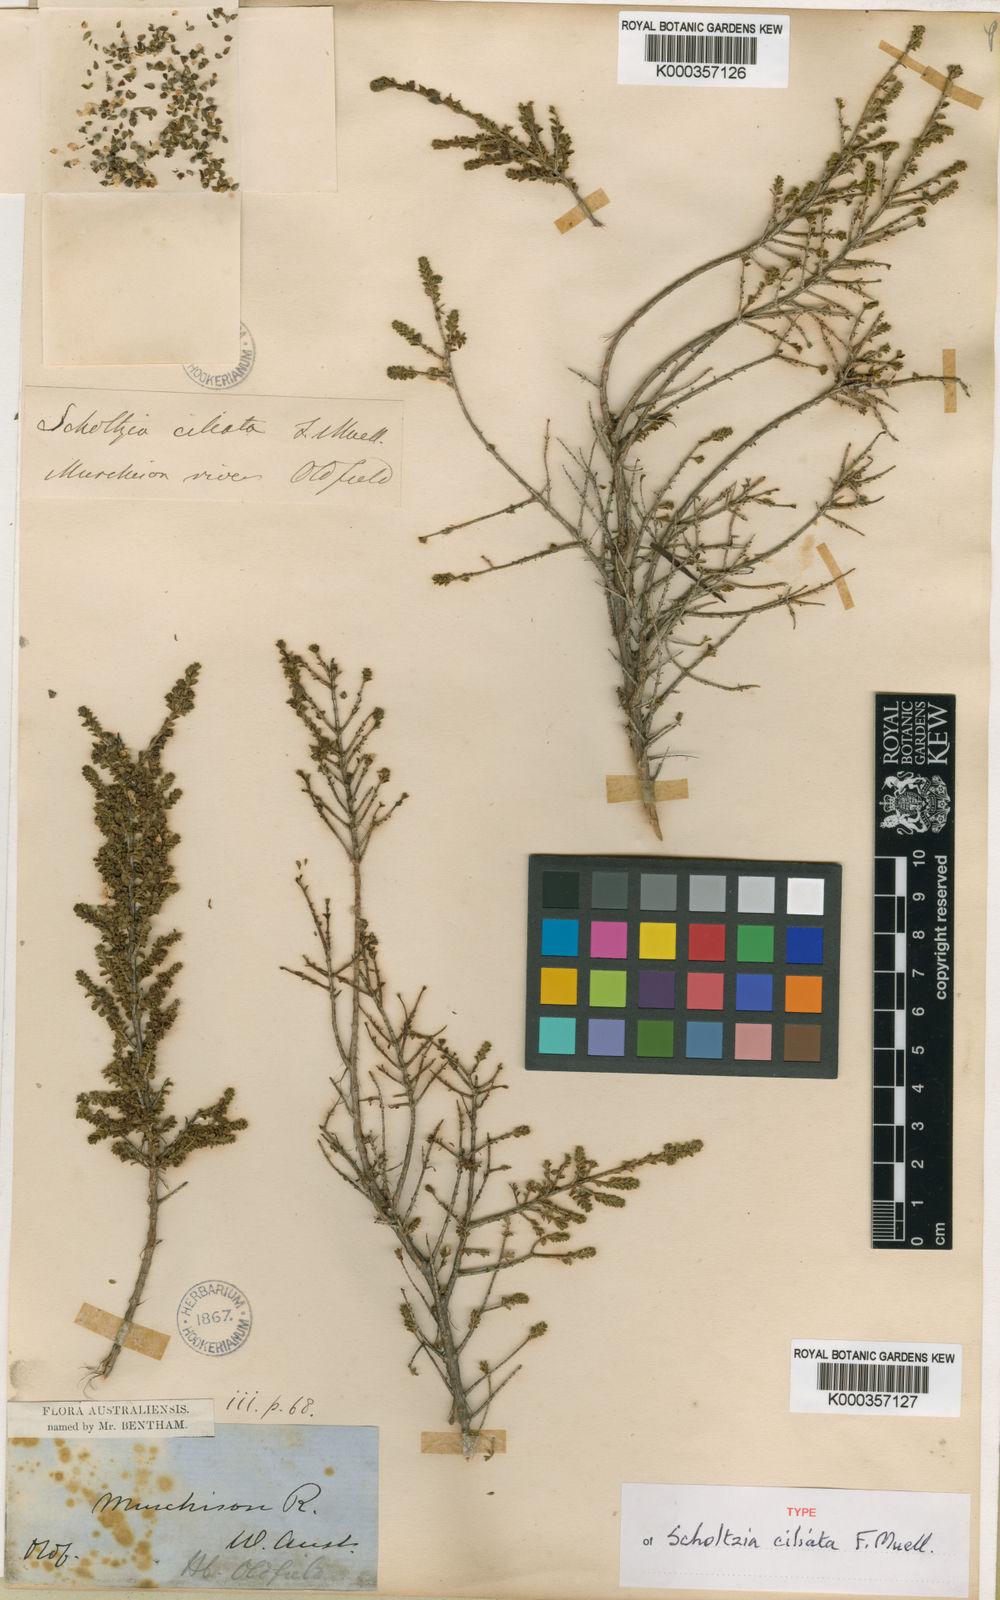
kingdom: Plantae
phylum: Tracheophyta
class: Magnoliopsida
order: Myrtales
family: Myrtaceae
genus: Scholtzia
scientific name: Scholtzia ciliata
